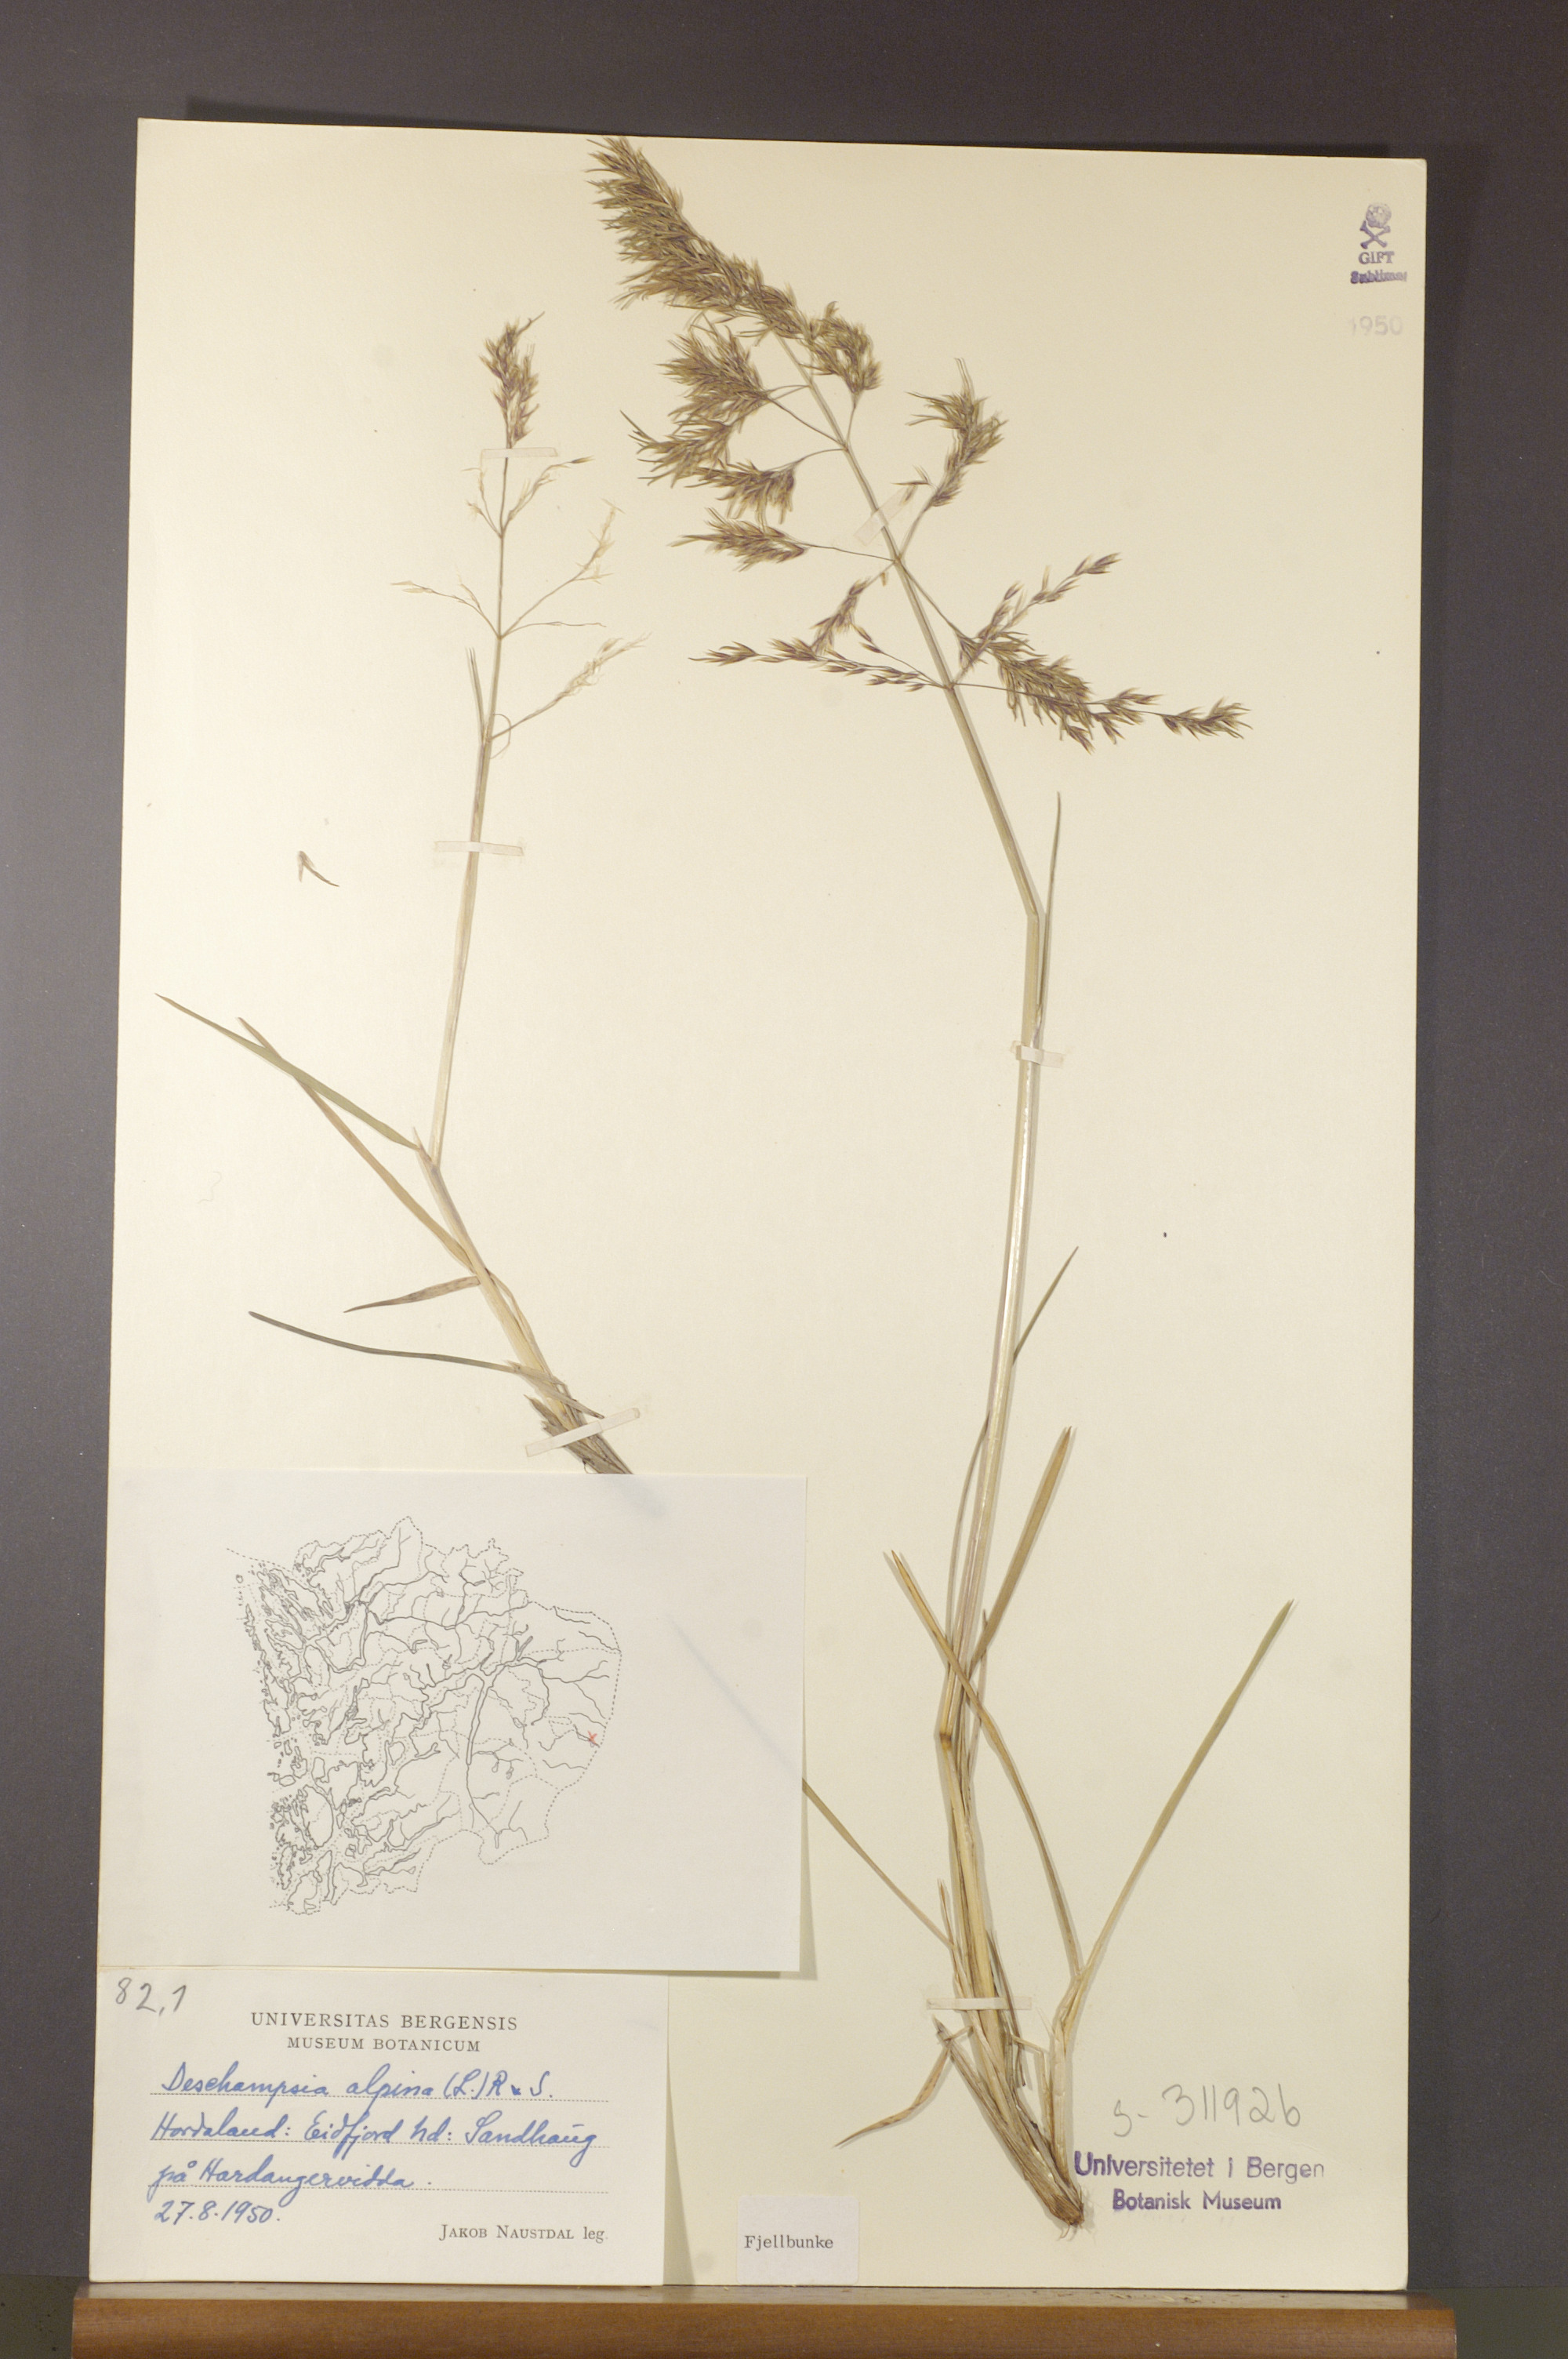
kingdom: Plantae
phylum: Tracheophyta
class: Liliopsida
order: Poales
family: Poaceae
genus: Deschampsia
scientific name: Deschampsia cespitosa
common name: Tufted hair-grass
